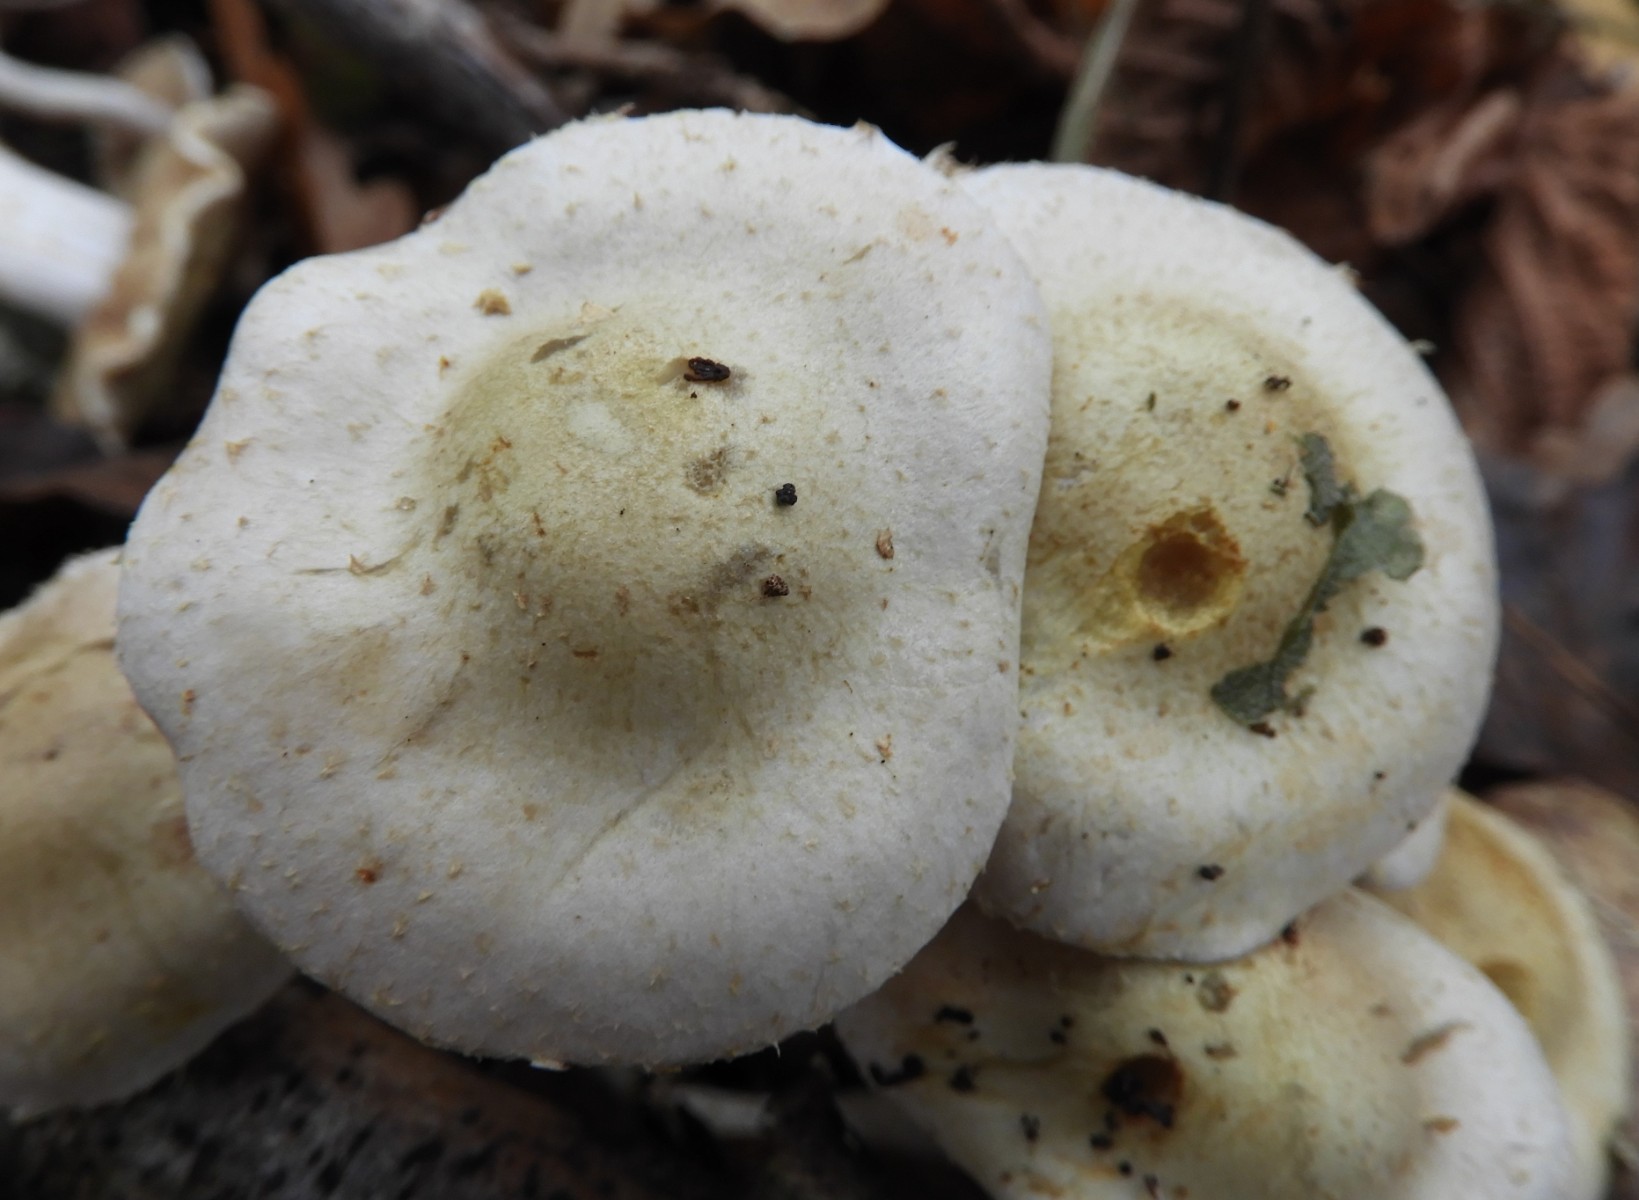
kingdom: Fungi
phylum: Basidiomycota
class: Agaricomycetes
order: Agaricales
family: Strophariaceae
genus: Pholiota
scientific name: Pholiota gummosa
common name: grøngul skælhat
